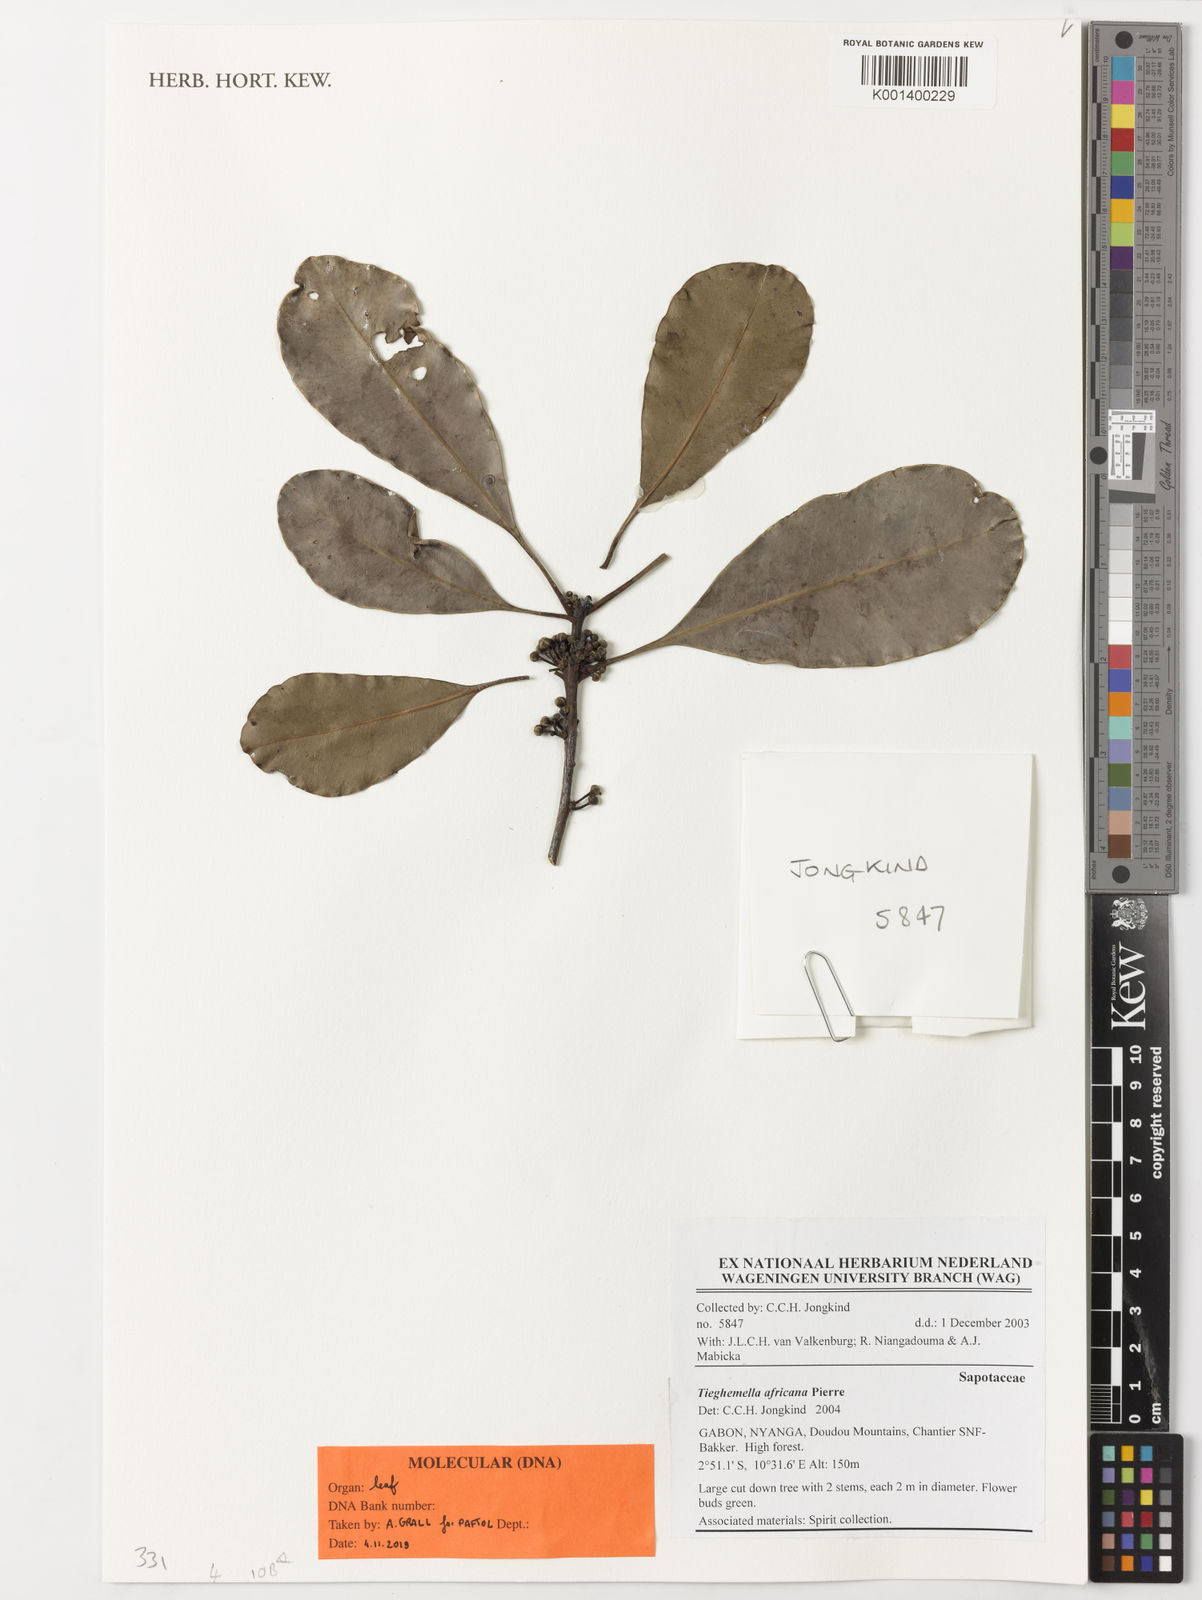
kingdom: Plantae
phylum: Tracheophyta
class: Magnoliopsida
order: Ericales
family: Sapotaceae
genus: Tieghemella
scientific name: Tieghemella africana
